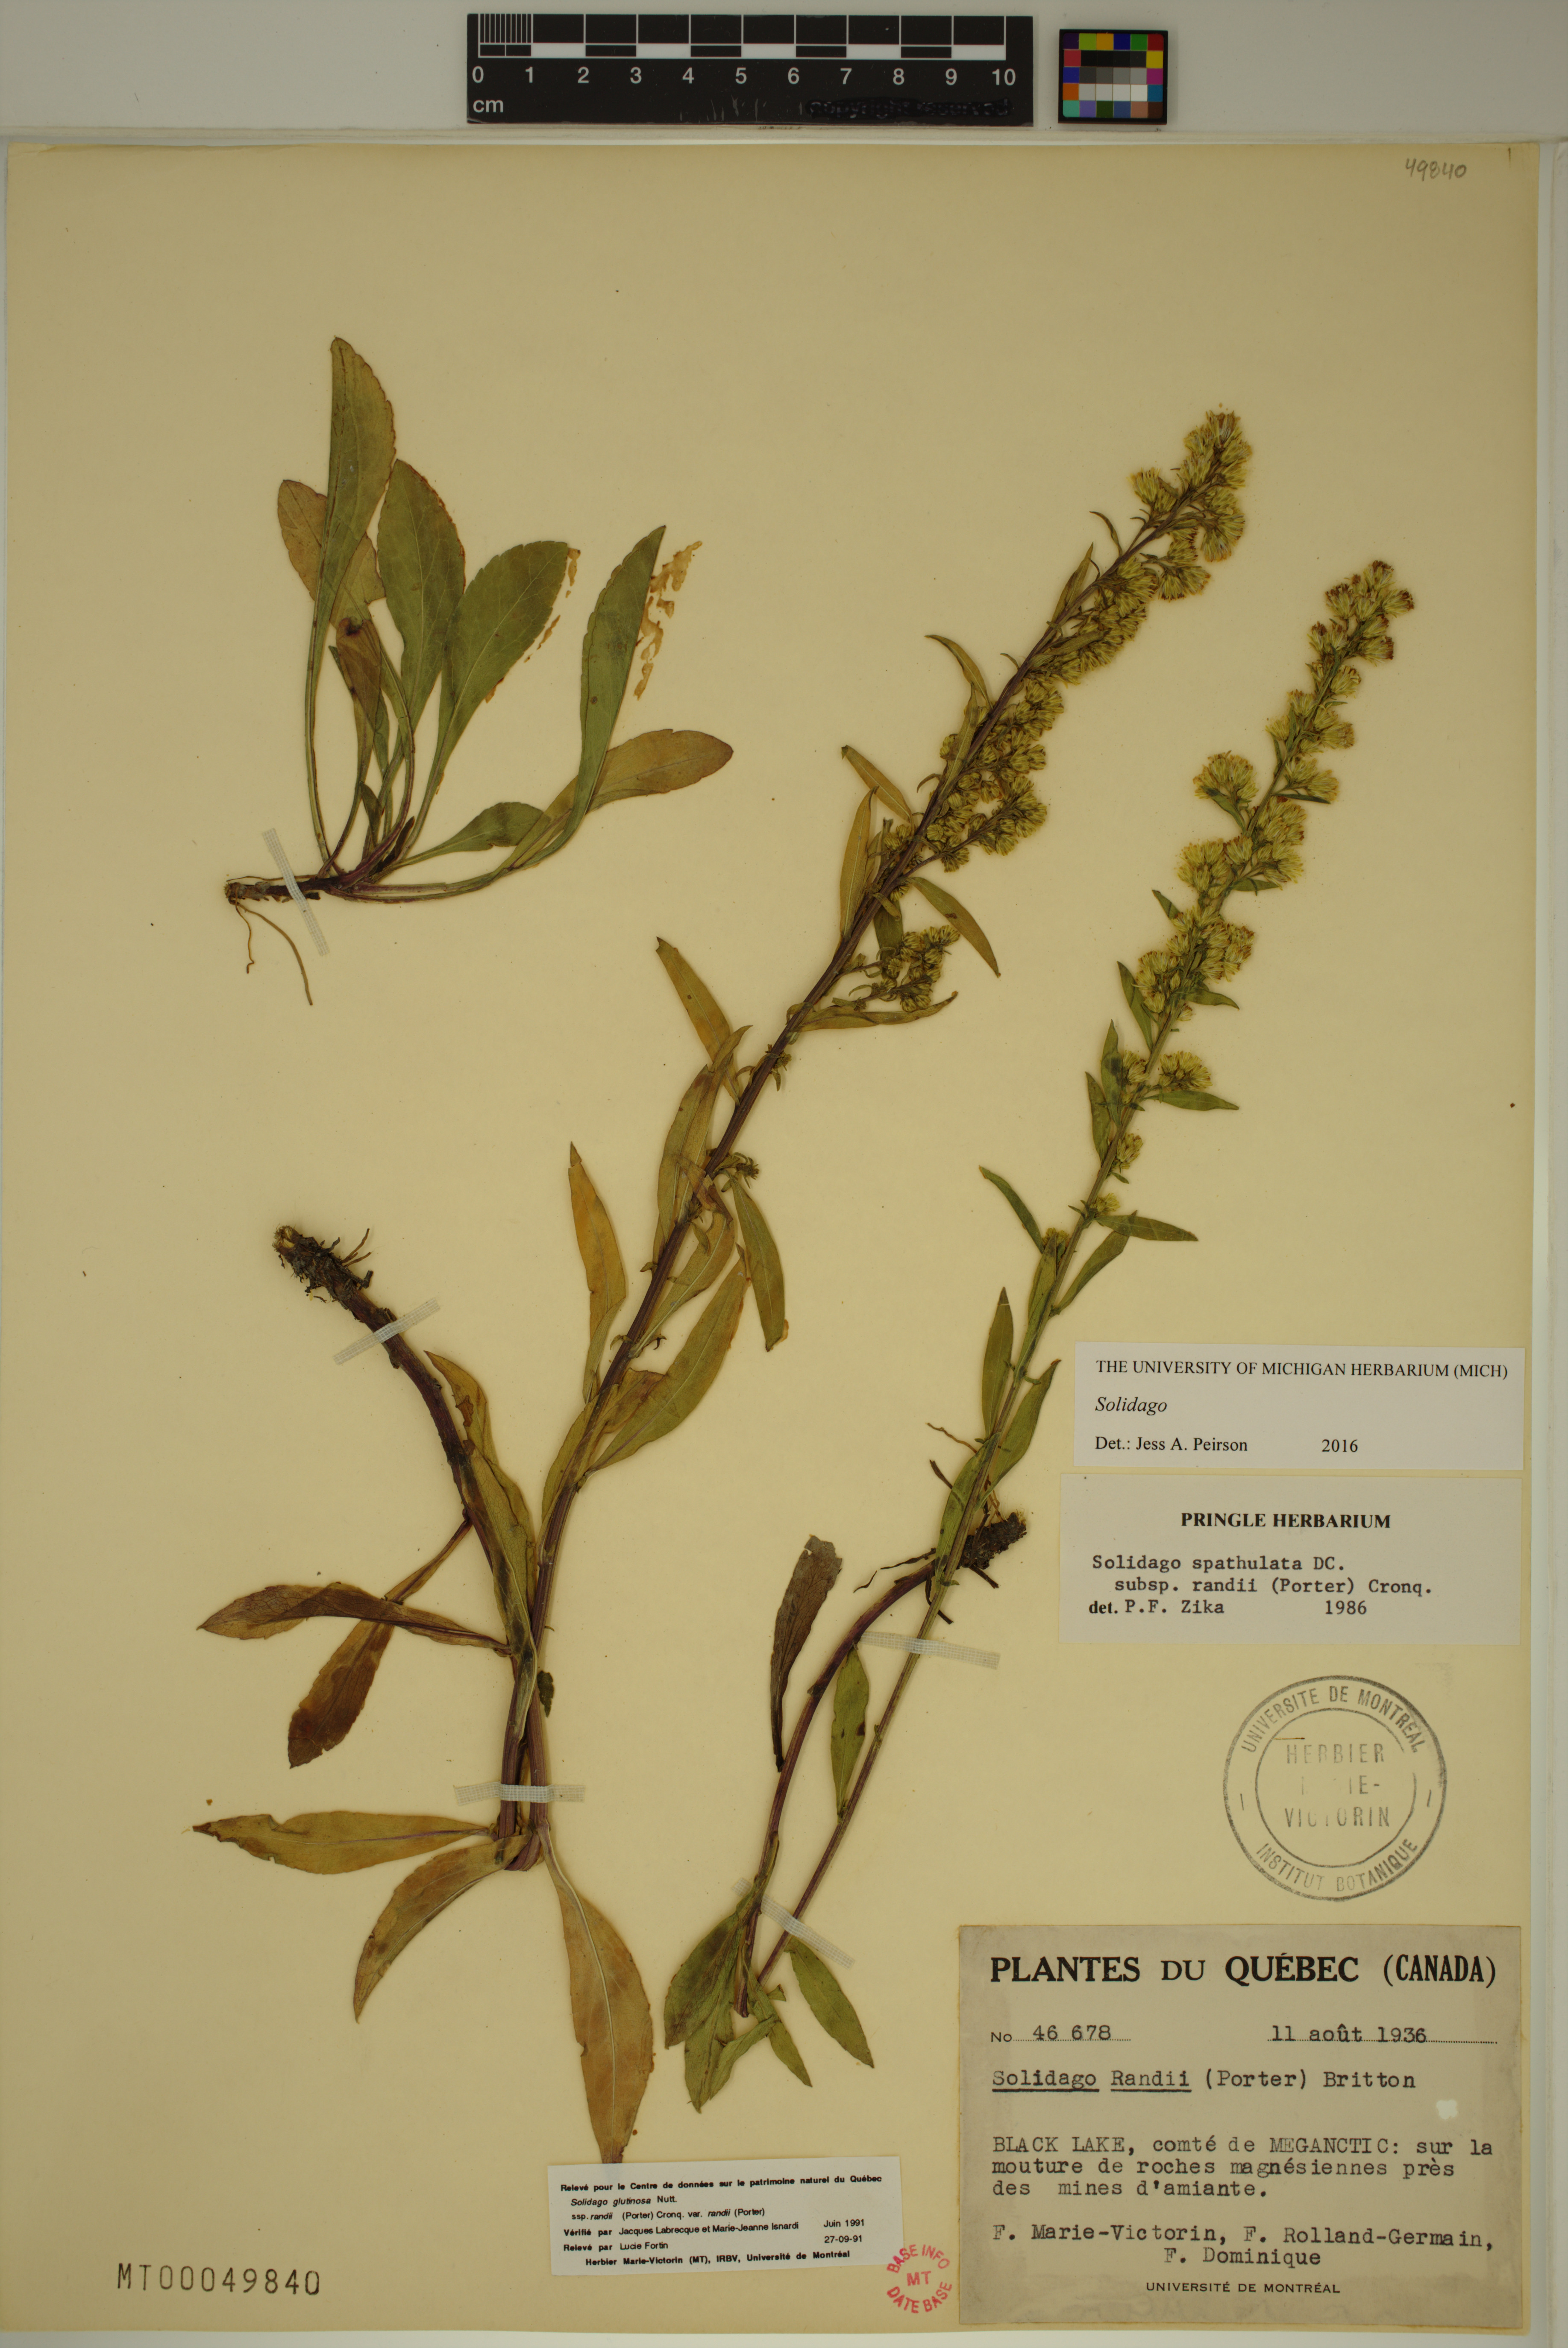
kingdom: Plantae
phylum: Tracheophyta
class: Magnoliopsida
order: Asterales
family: Asteraceae
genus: Solidago
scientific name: Solidago
